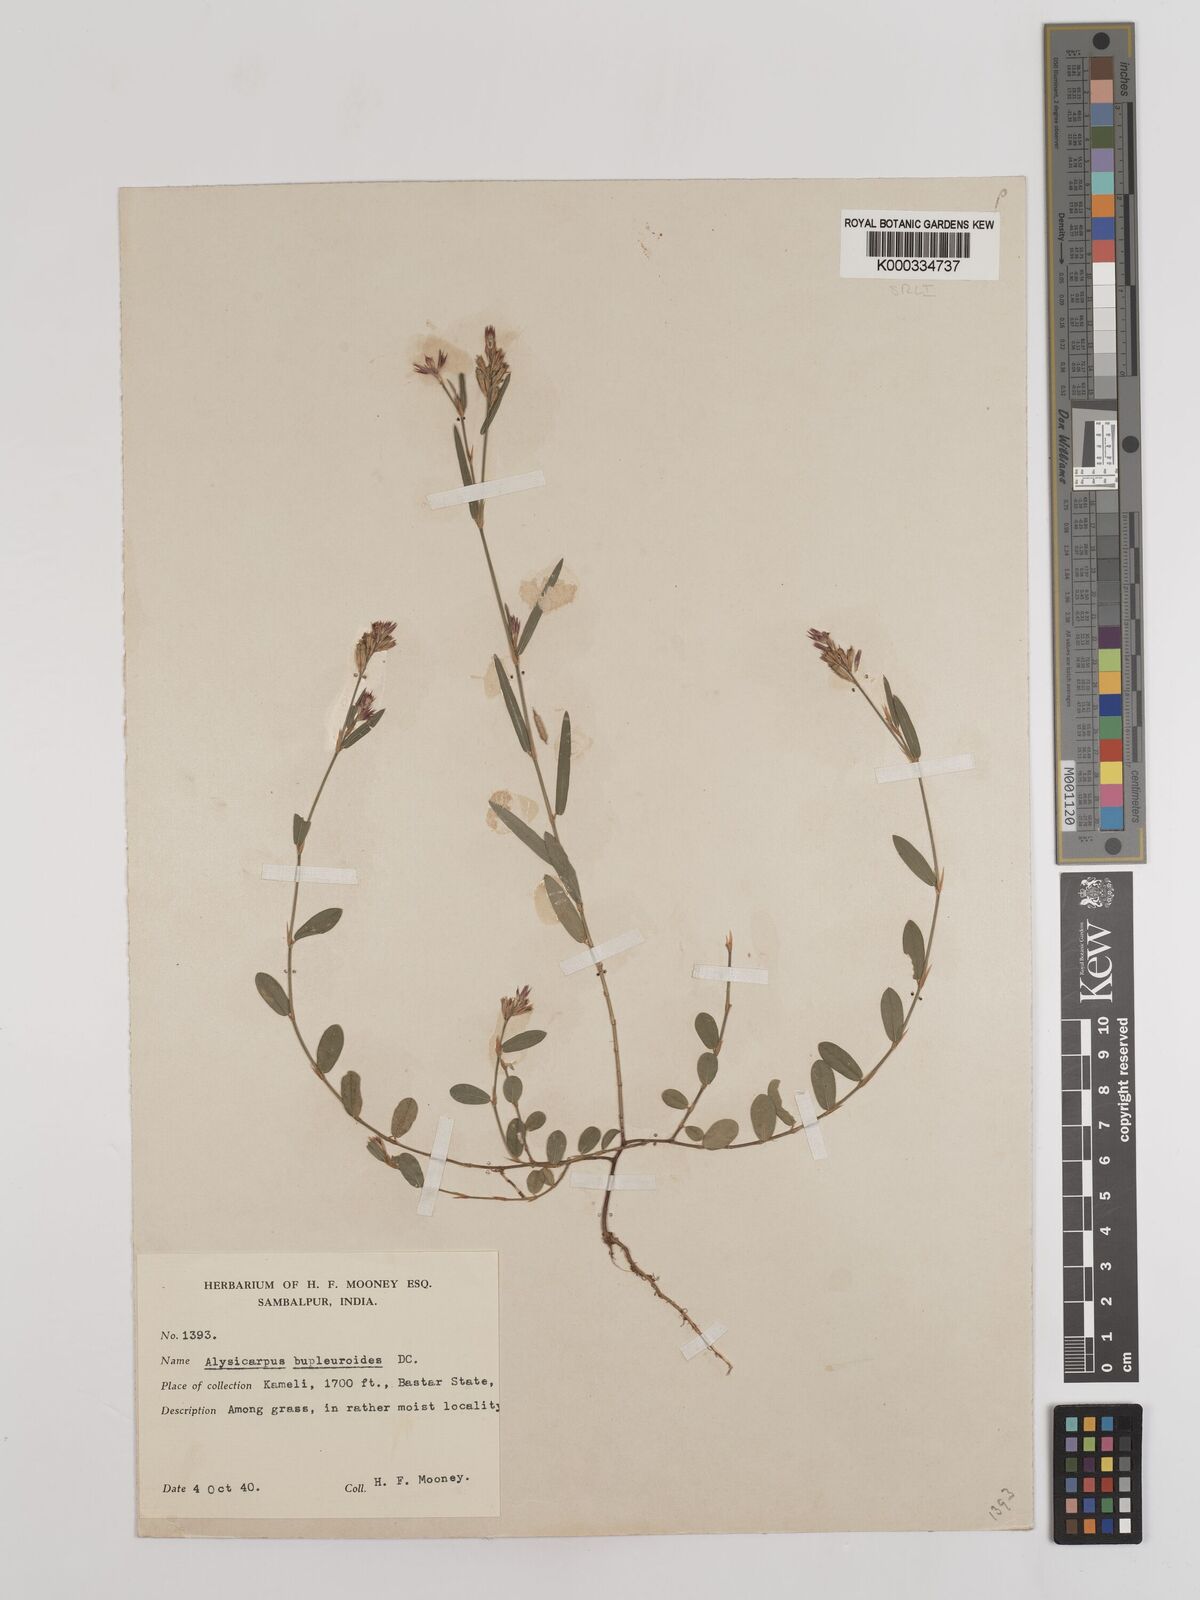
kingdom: Plantae
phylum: Tracheophyta
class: Magnoliopsida
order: Fabales
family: Fabaceae
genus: Alysicarpus
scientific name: Alysicarpus bupleurifolius
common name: Sweet alys
